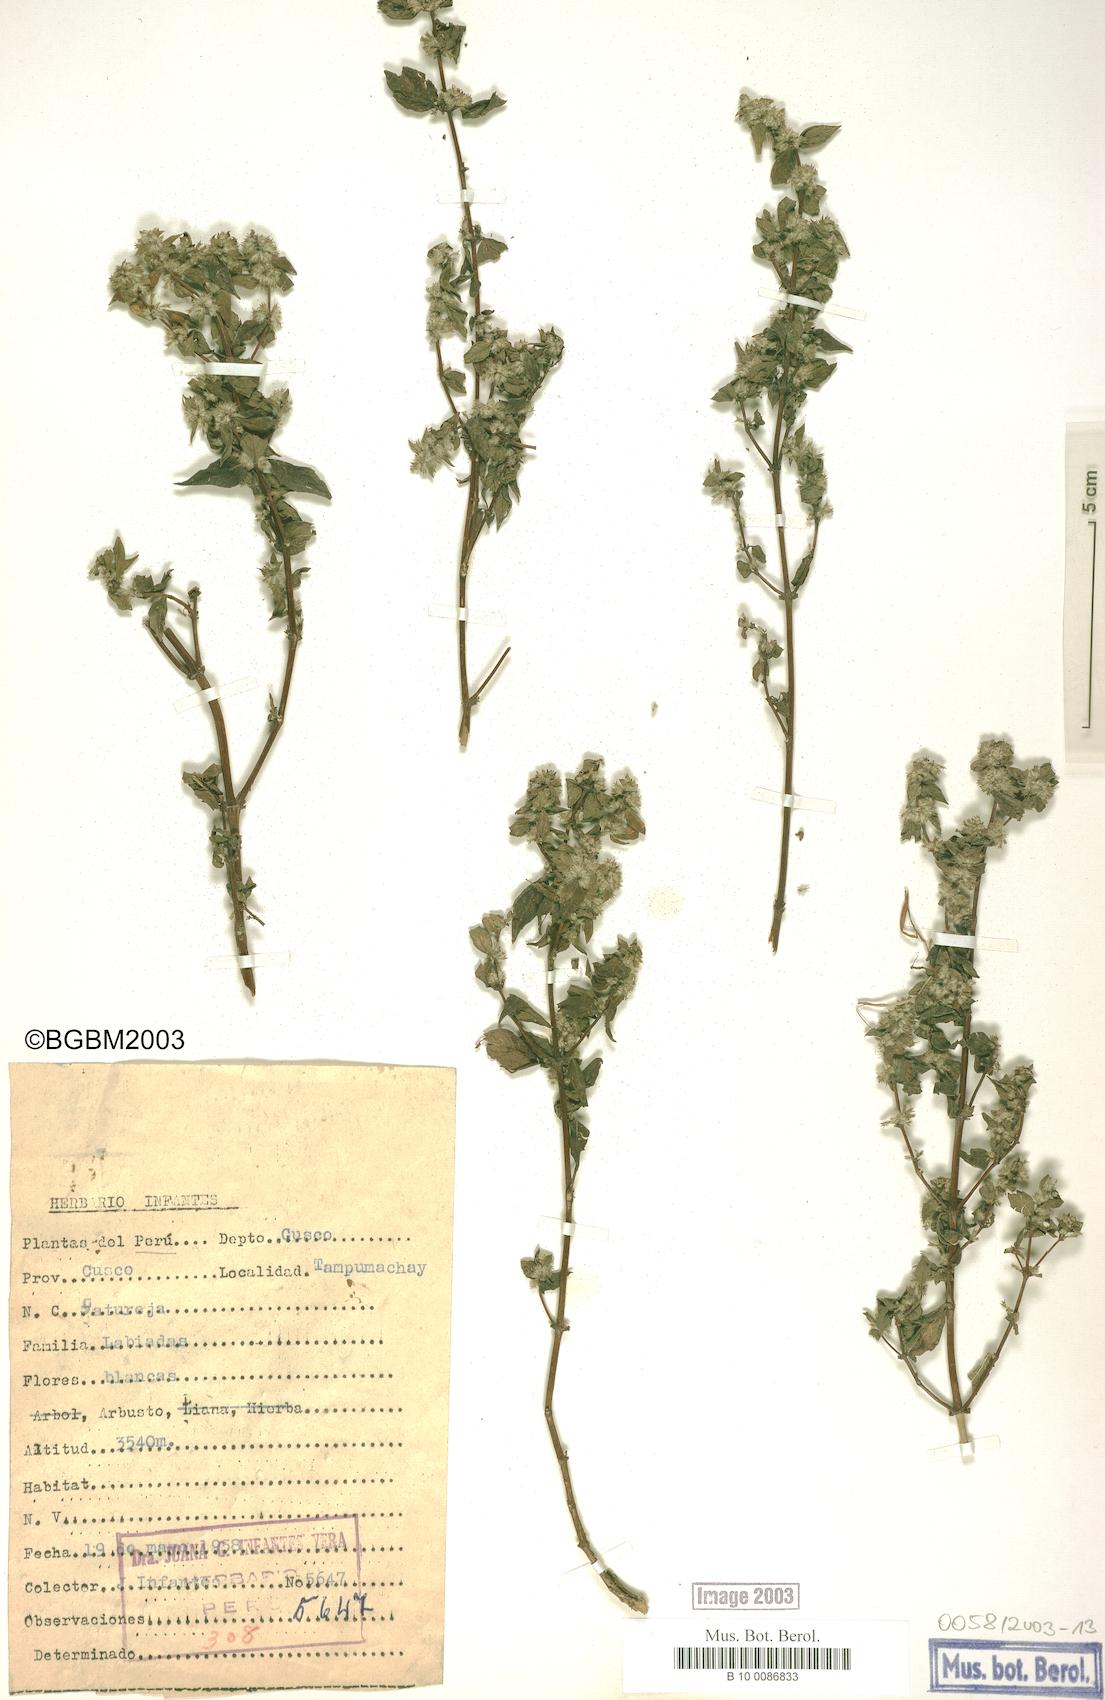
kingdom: Plantae
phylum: Tracheophyta
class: Magnoliopsida
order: Lamiales
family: Lamiaceae
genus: Satureja
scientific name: Satureja
